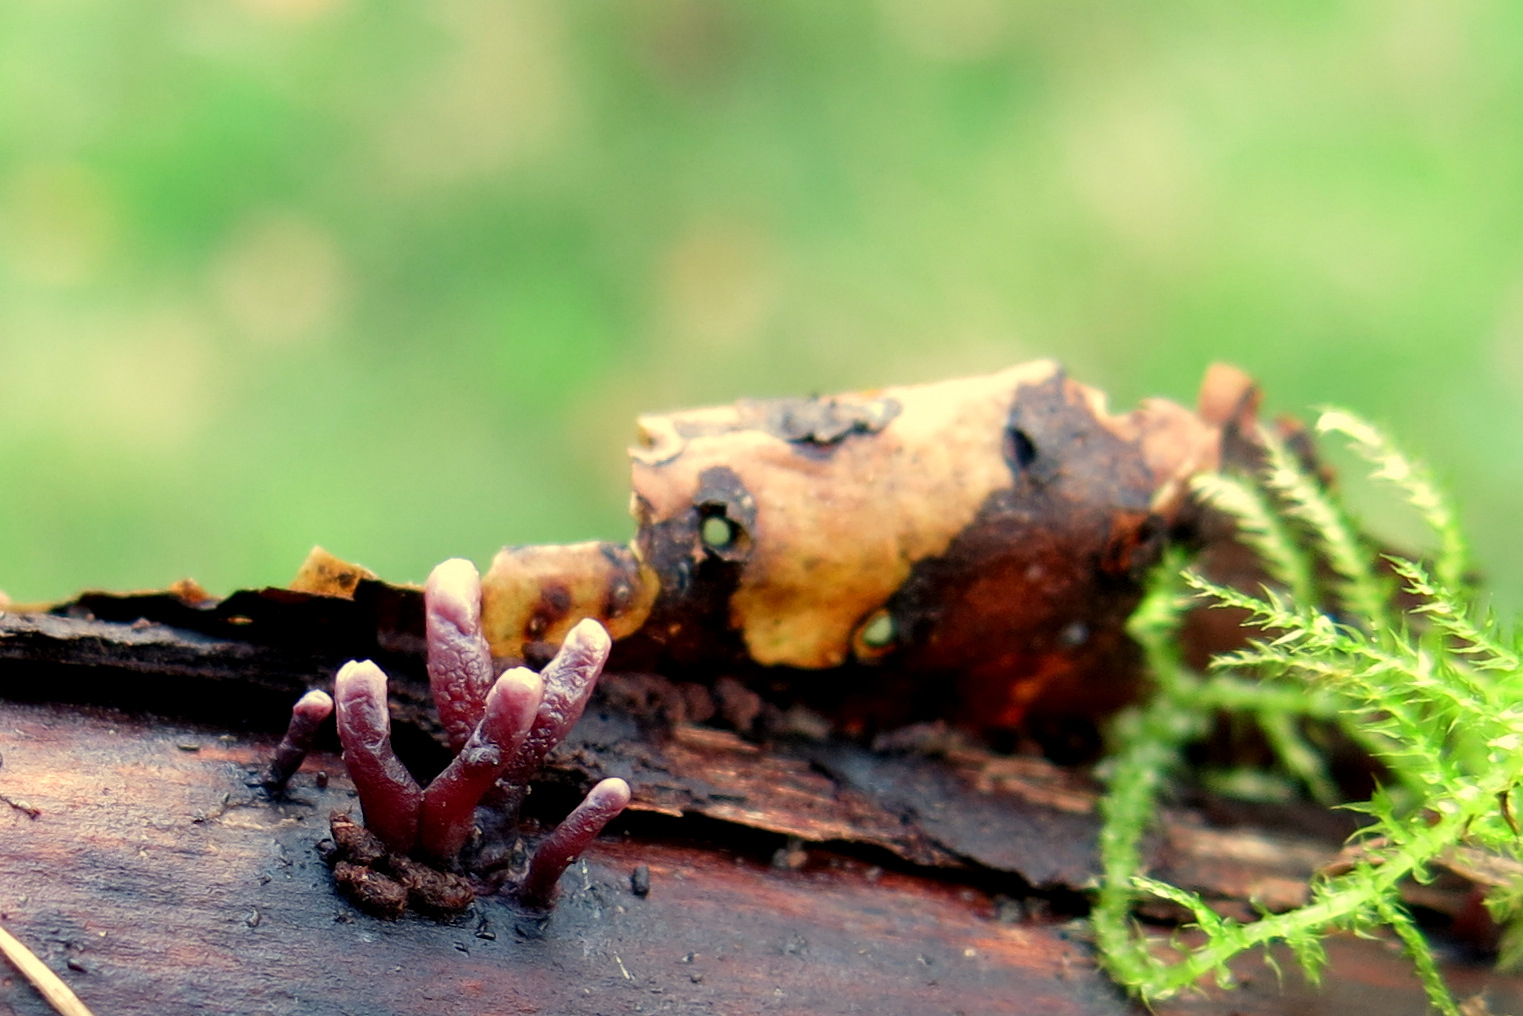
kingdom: Fungi
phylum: Ascomycota
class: Leotiomycetes
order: Helotiales
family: Gelatinodiscaceae
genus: Ascocoryne
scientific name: Ascocoryne sarcoides
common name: rødlilla sejskive
